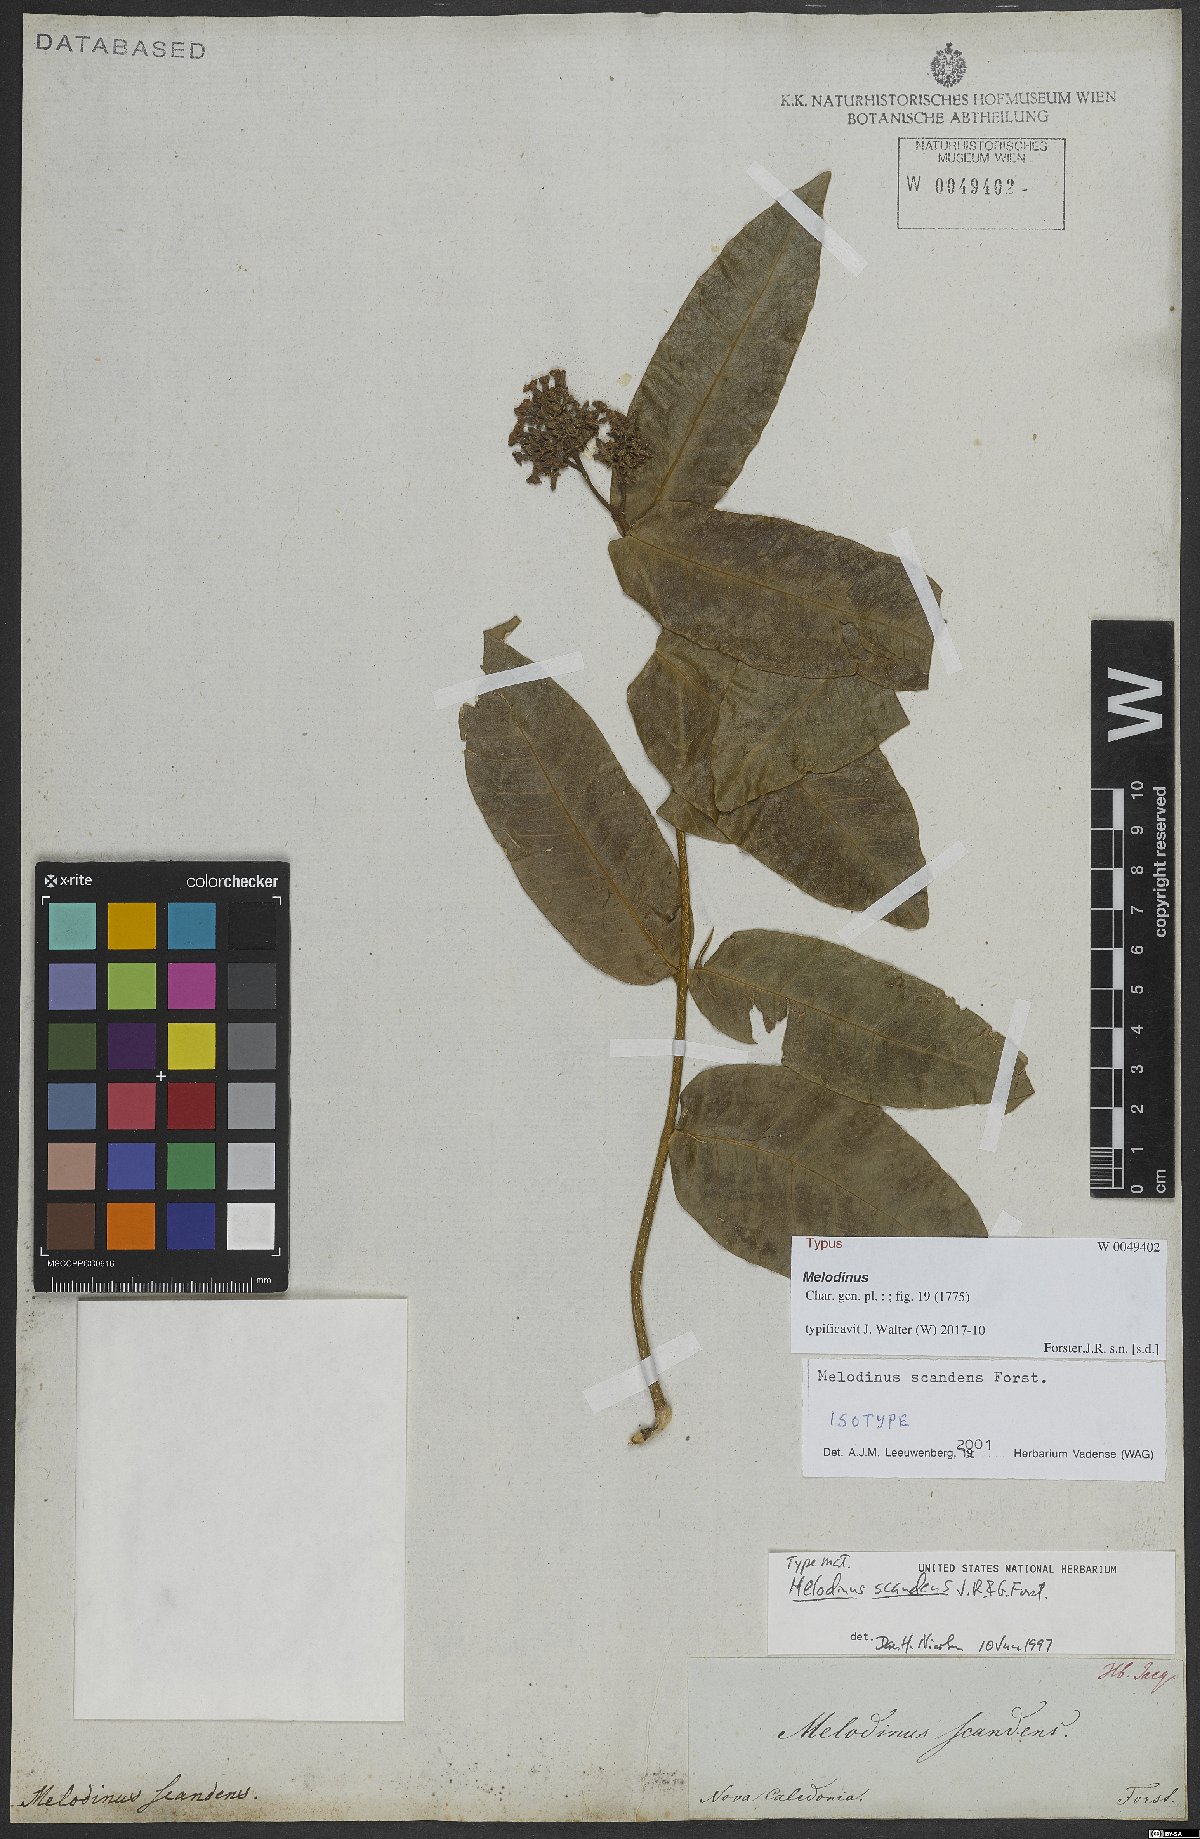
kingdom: Plantae
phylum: Tracheophyta
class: Magnoliopsida
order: Gentianales
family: Apocynaceae
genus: Melodinus
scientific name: Melodinus scandens
